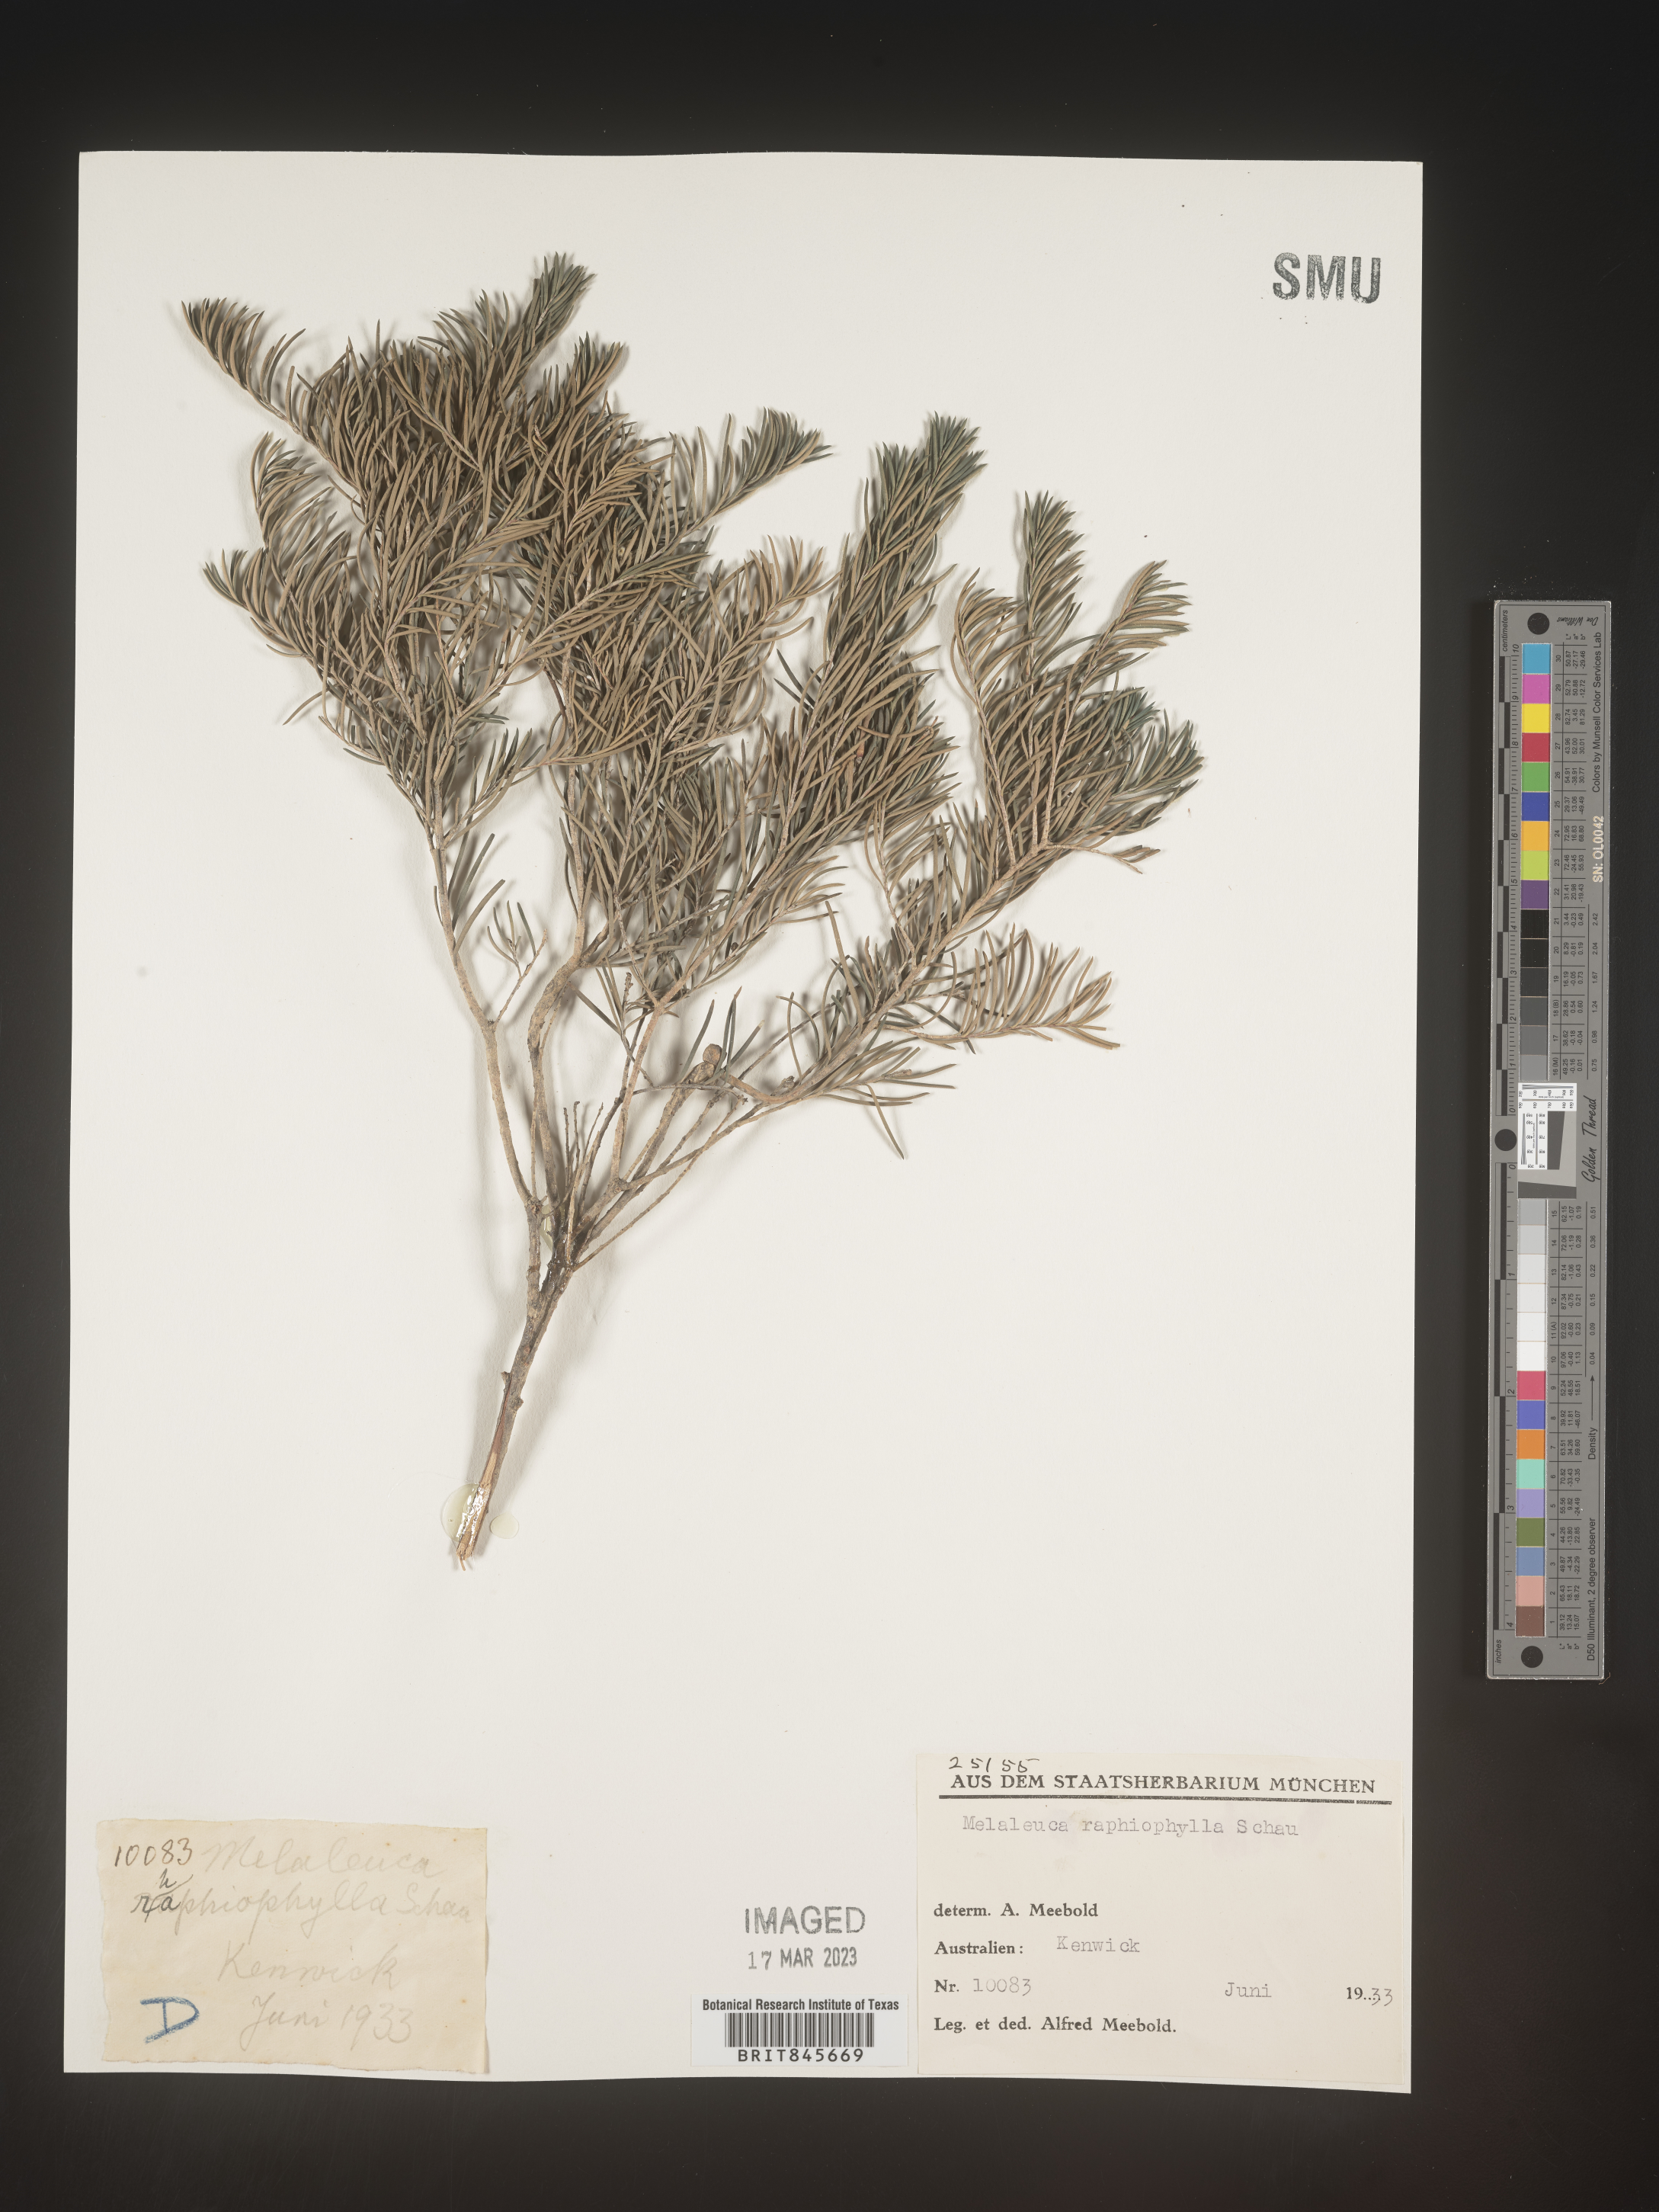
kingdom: Plantae
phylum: Tracheophyta
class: Magnoliopsida
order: Myrtales
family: Myrtaceae
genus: Melaleuca
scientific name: Melaleuca
